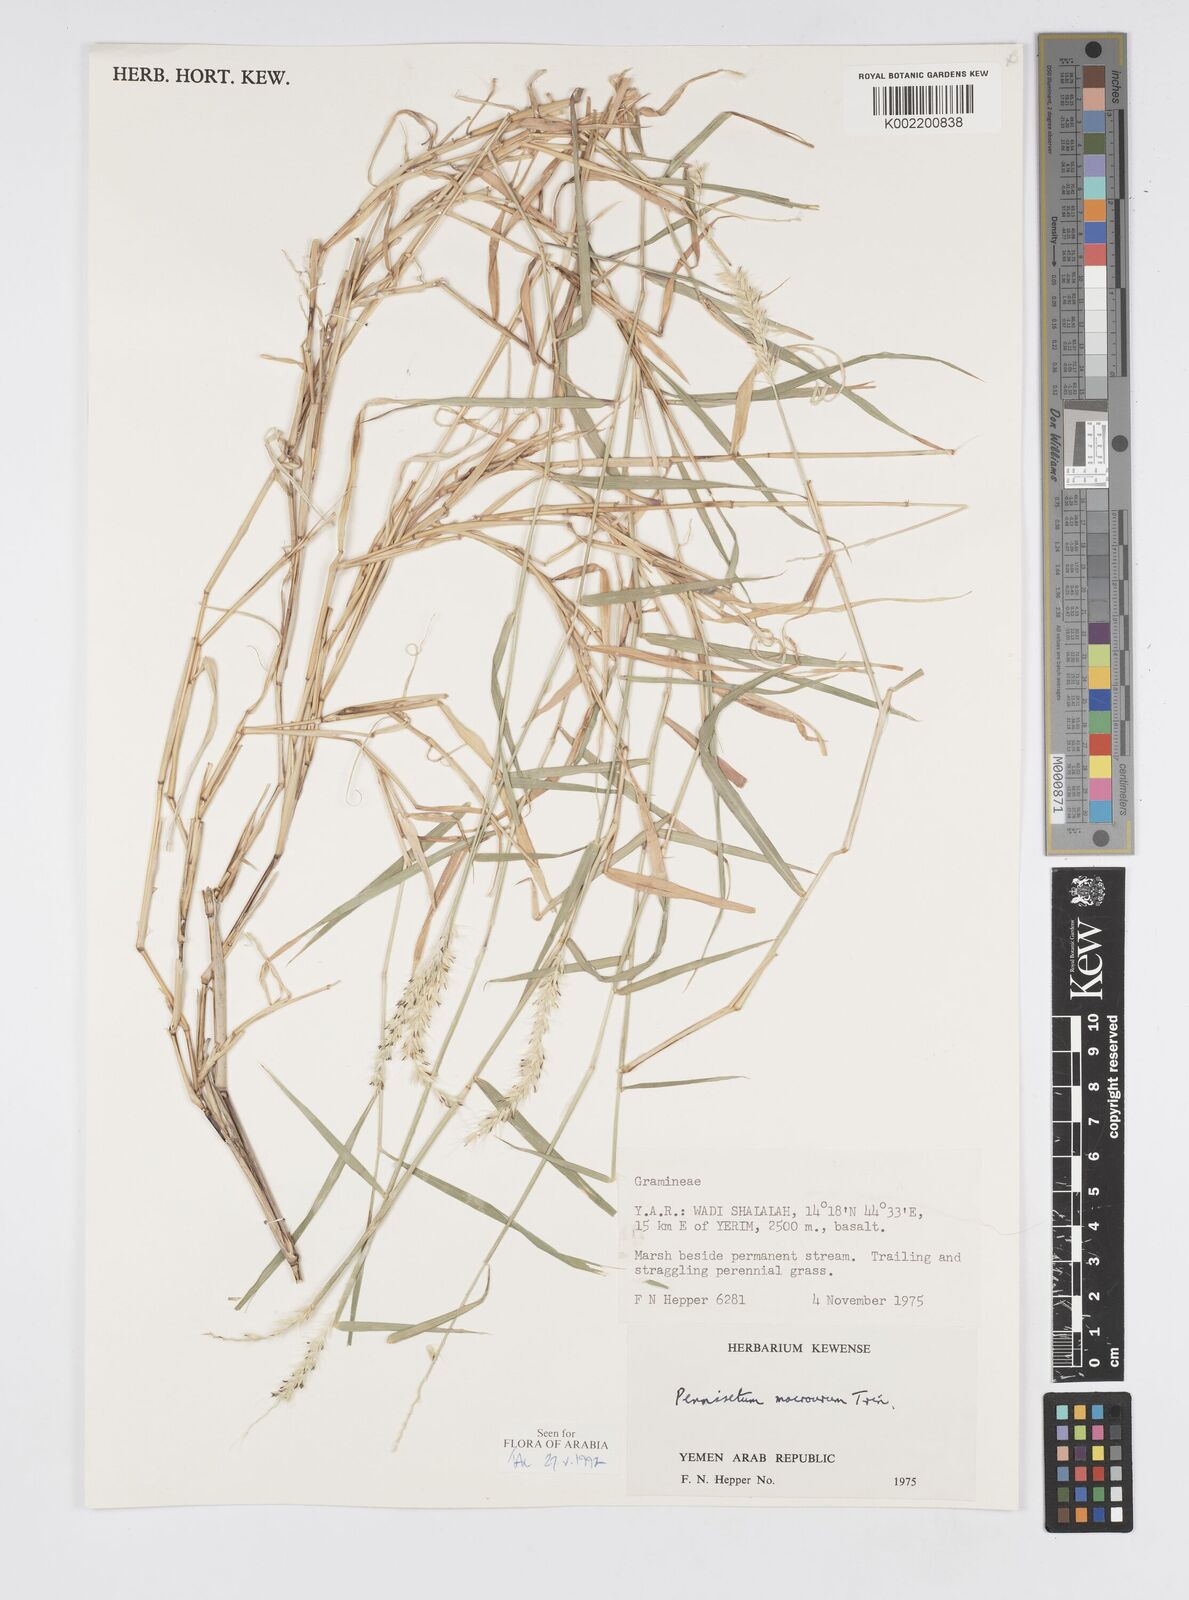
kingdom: Plantae
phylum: Tracheophyta
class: Liliopsida
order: Poales
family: Poaceae
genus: Cenchrus
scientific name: Cenchrus caudatus
